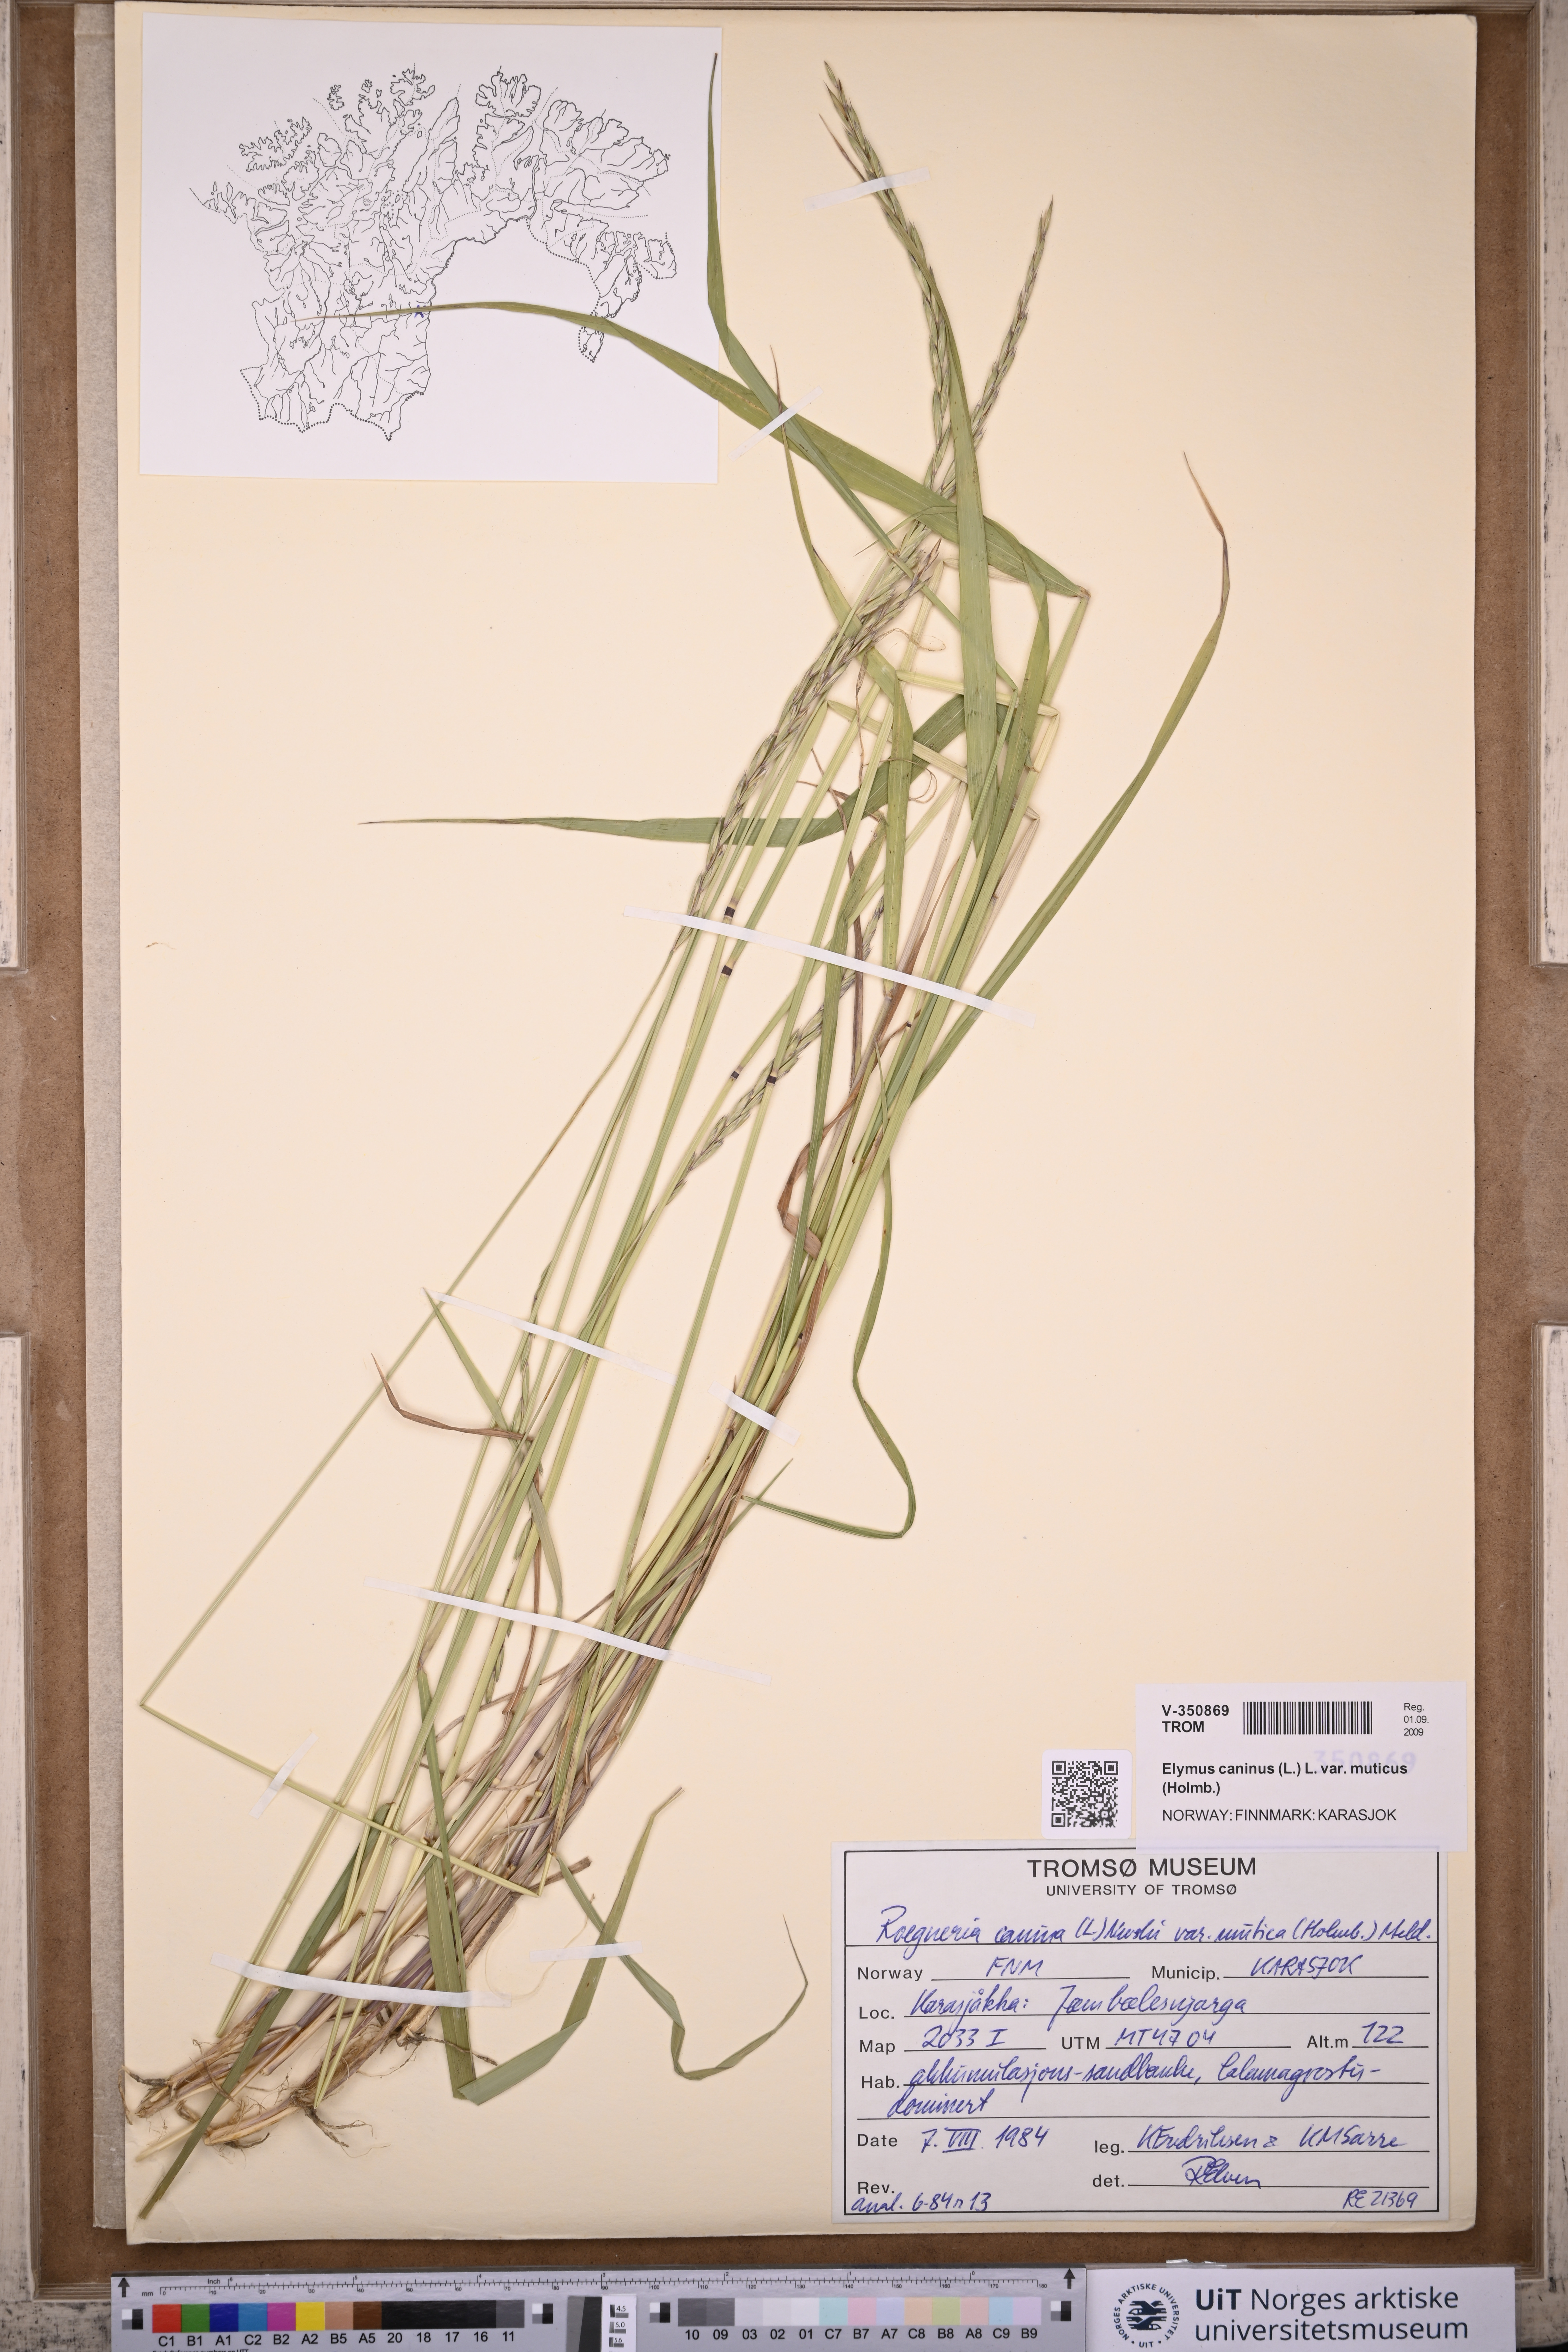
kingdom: Plantae
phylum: Tracheophyta
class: Liliopsida
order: Poales
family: Poaceae
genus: Elymus
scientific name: Elymus caninus
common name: Bearded couch
